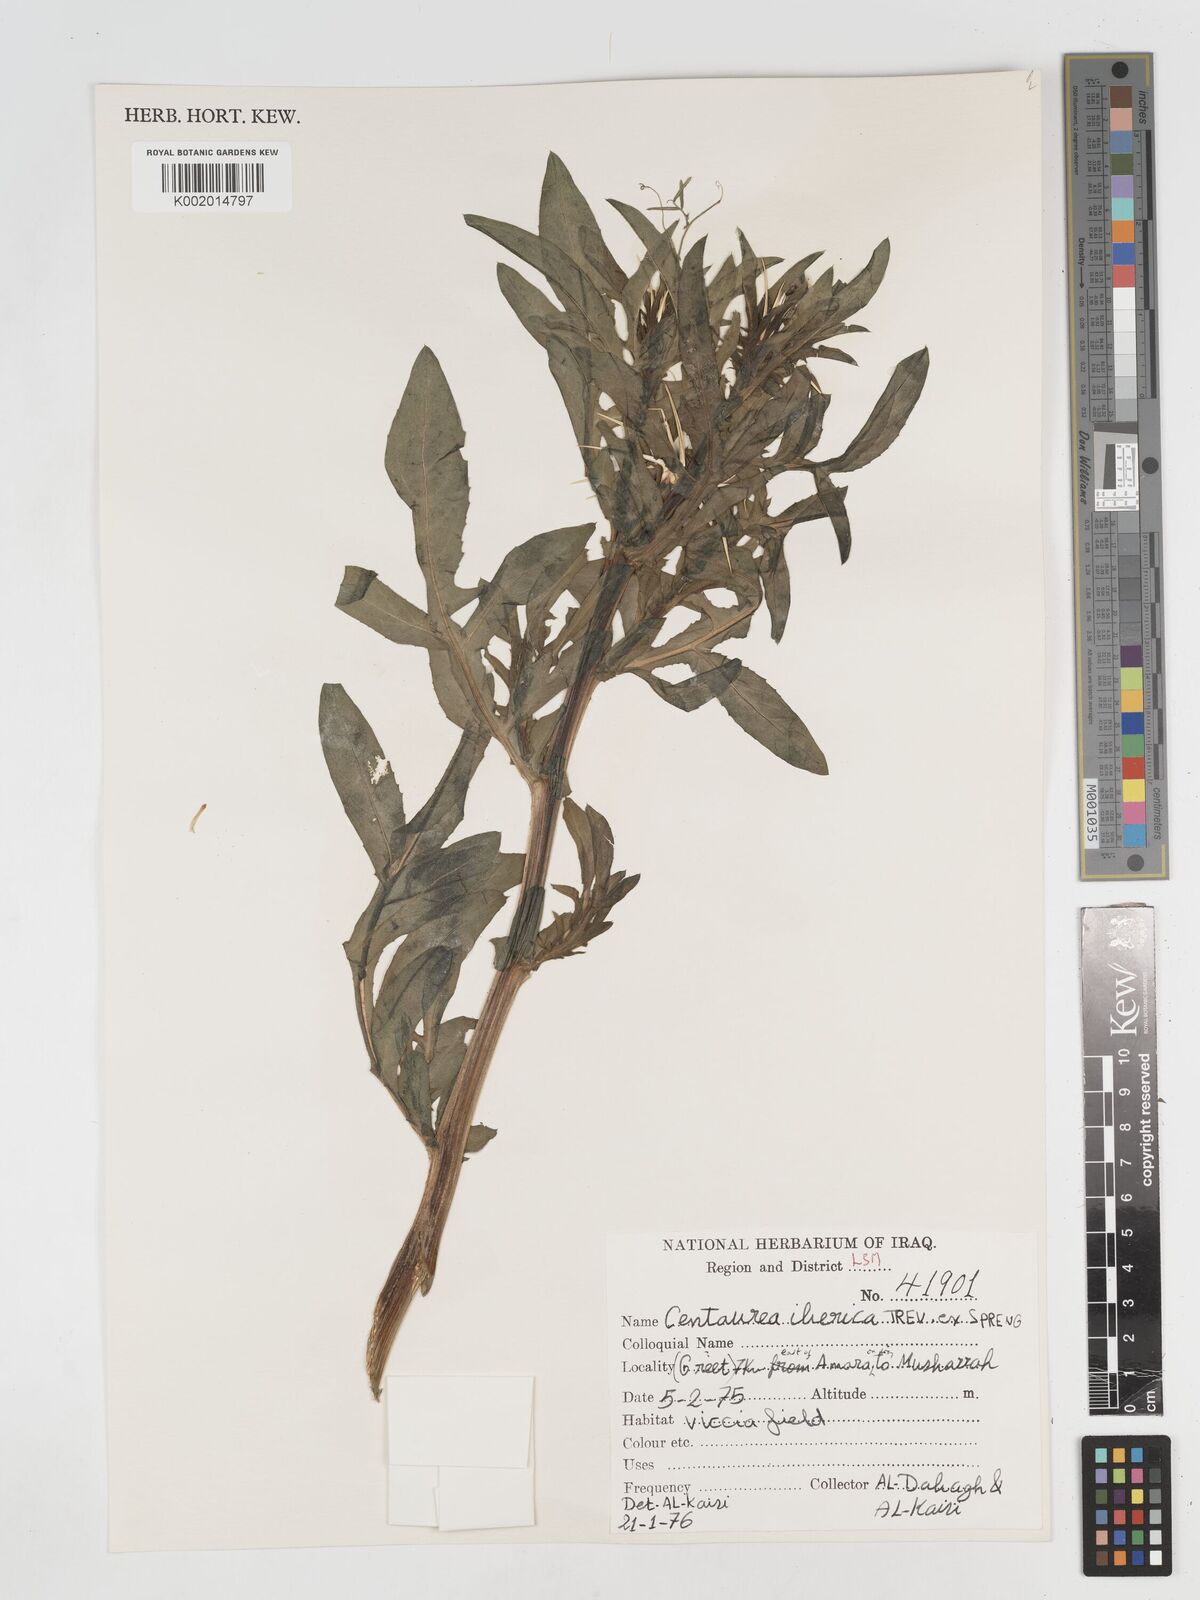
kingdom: Plantae
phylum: Tracheophyta
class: Magnoliopsida
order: Asterales
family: Asteraceae
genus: Centaurea
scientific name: Centaurea iberica
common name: Iberian knapweed
